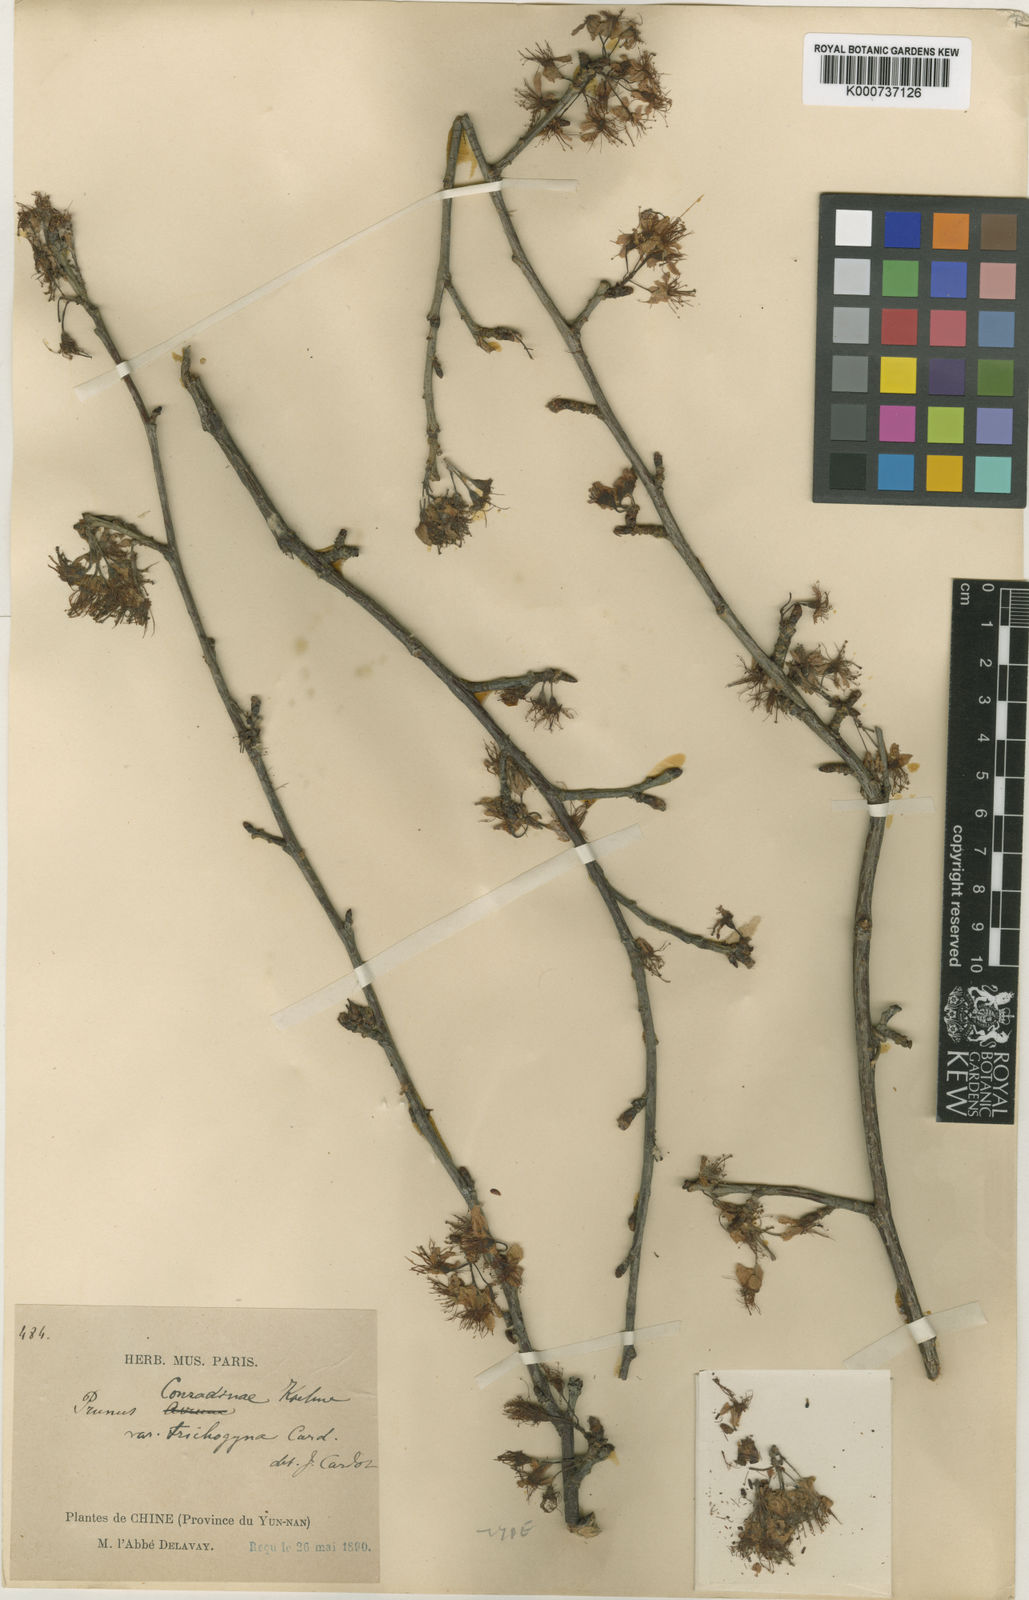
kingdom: Plantae
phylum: Tracheophyta
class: Magnoliopsida
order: Rosales
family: Rosaceae
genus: Prunus
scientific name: Prunus conradinae
